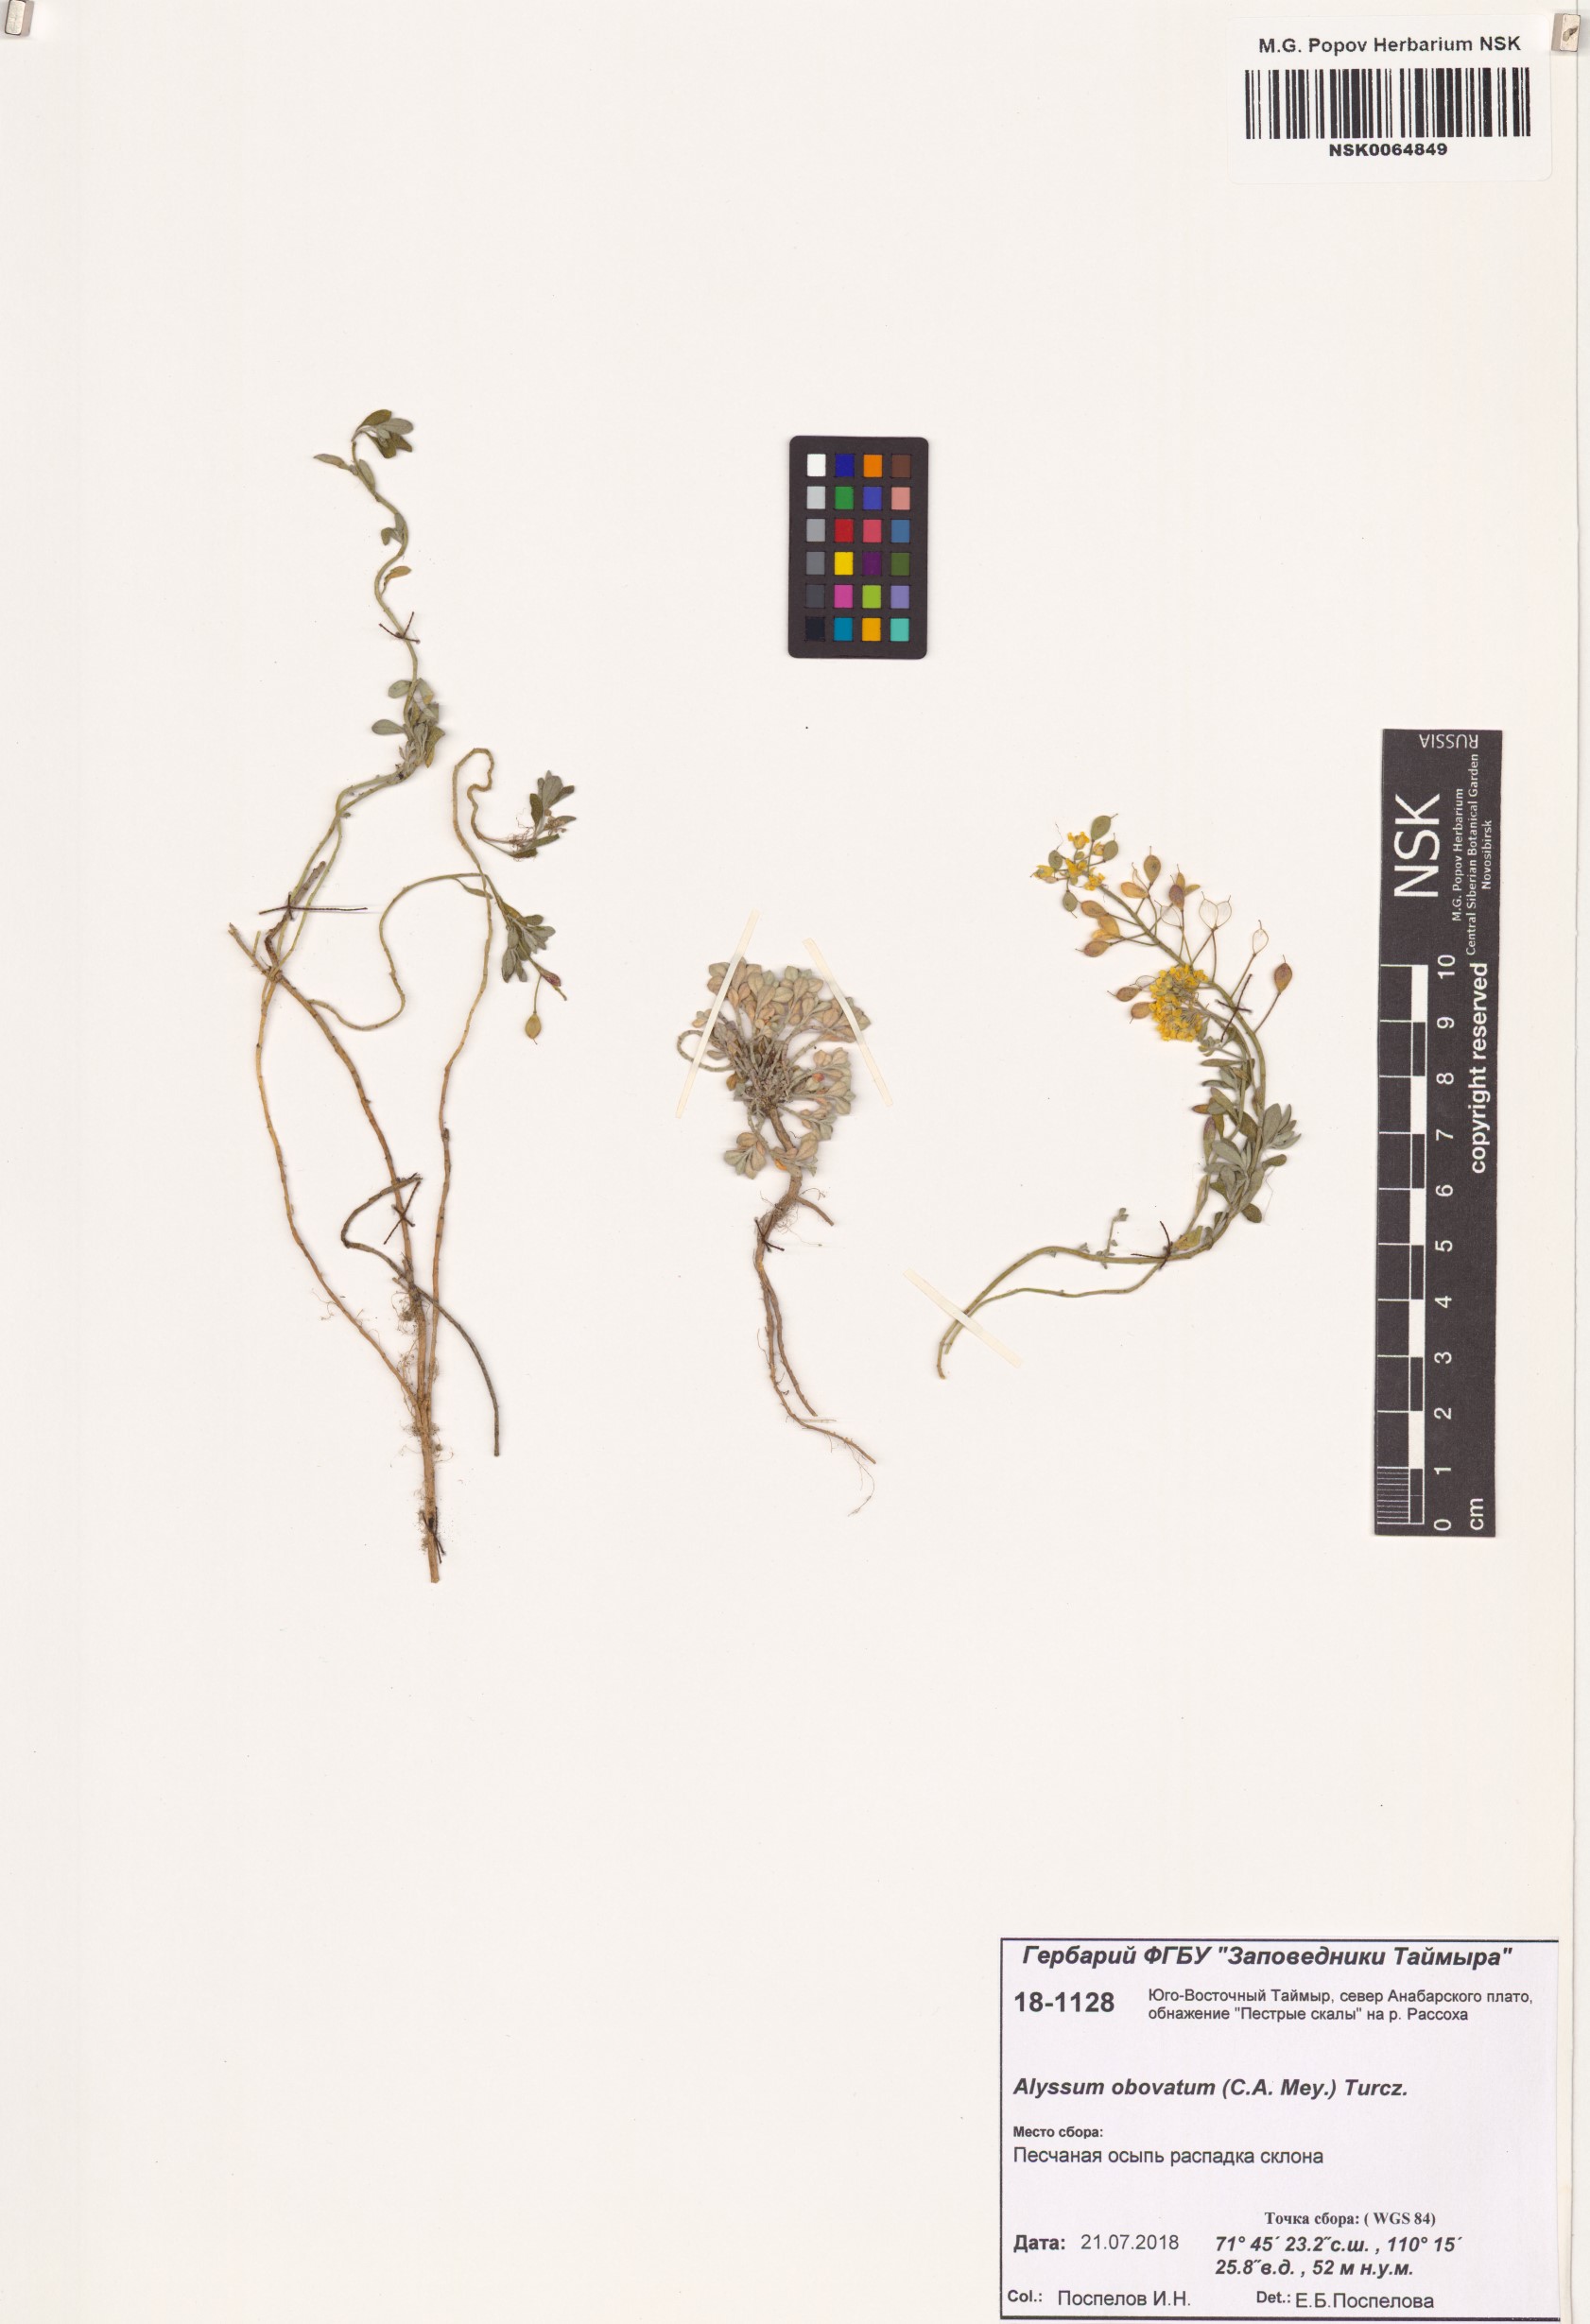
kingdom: Plantae
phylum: Tracheophyta
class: Magnoliopsida
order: Brassicales
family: Brassicaceae
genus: Odontarrhena
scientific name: Odontarrhena obovata
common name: American alyssum
